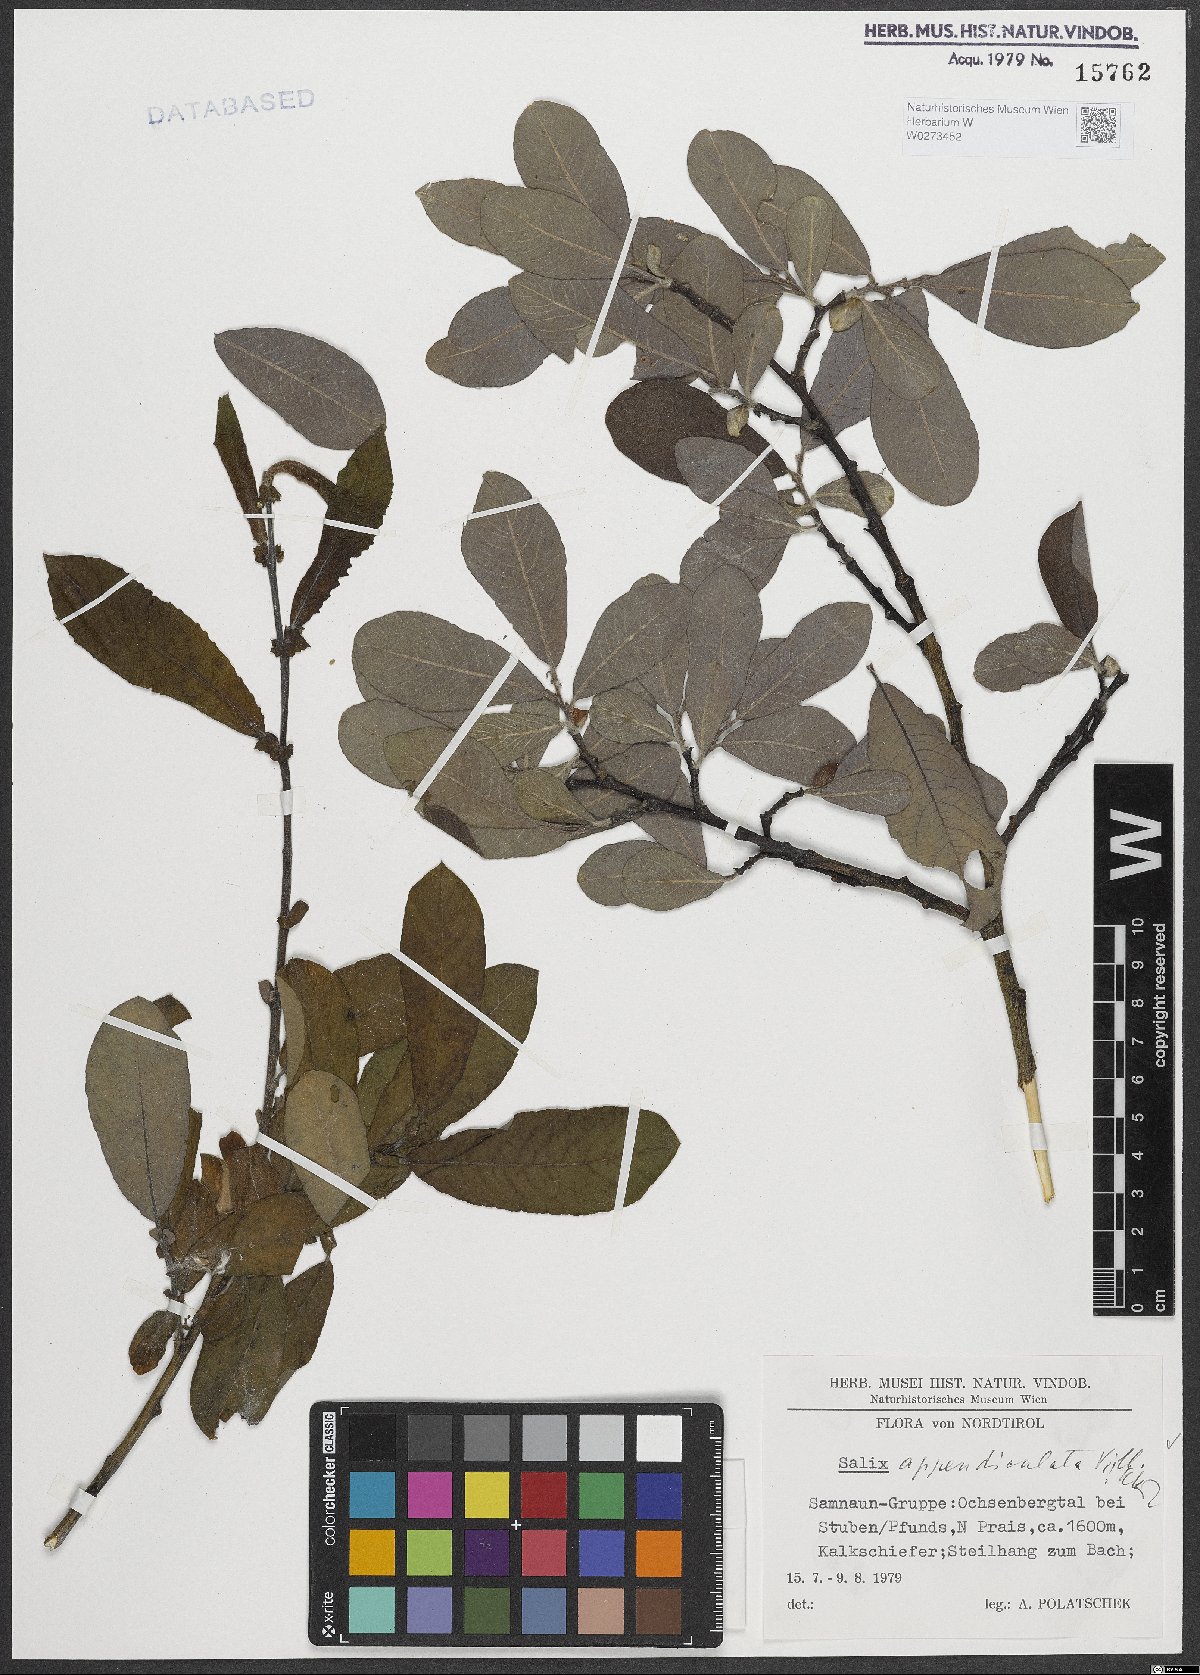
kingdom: Plantae
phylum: Tracheophyta
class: Magnoliopsida
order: Malpighiales
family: Salicaceae
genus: Salix
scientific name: Salix appendiculata
